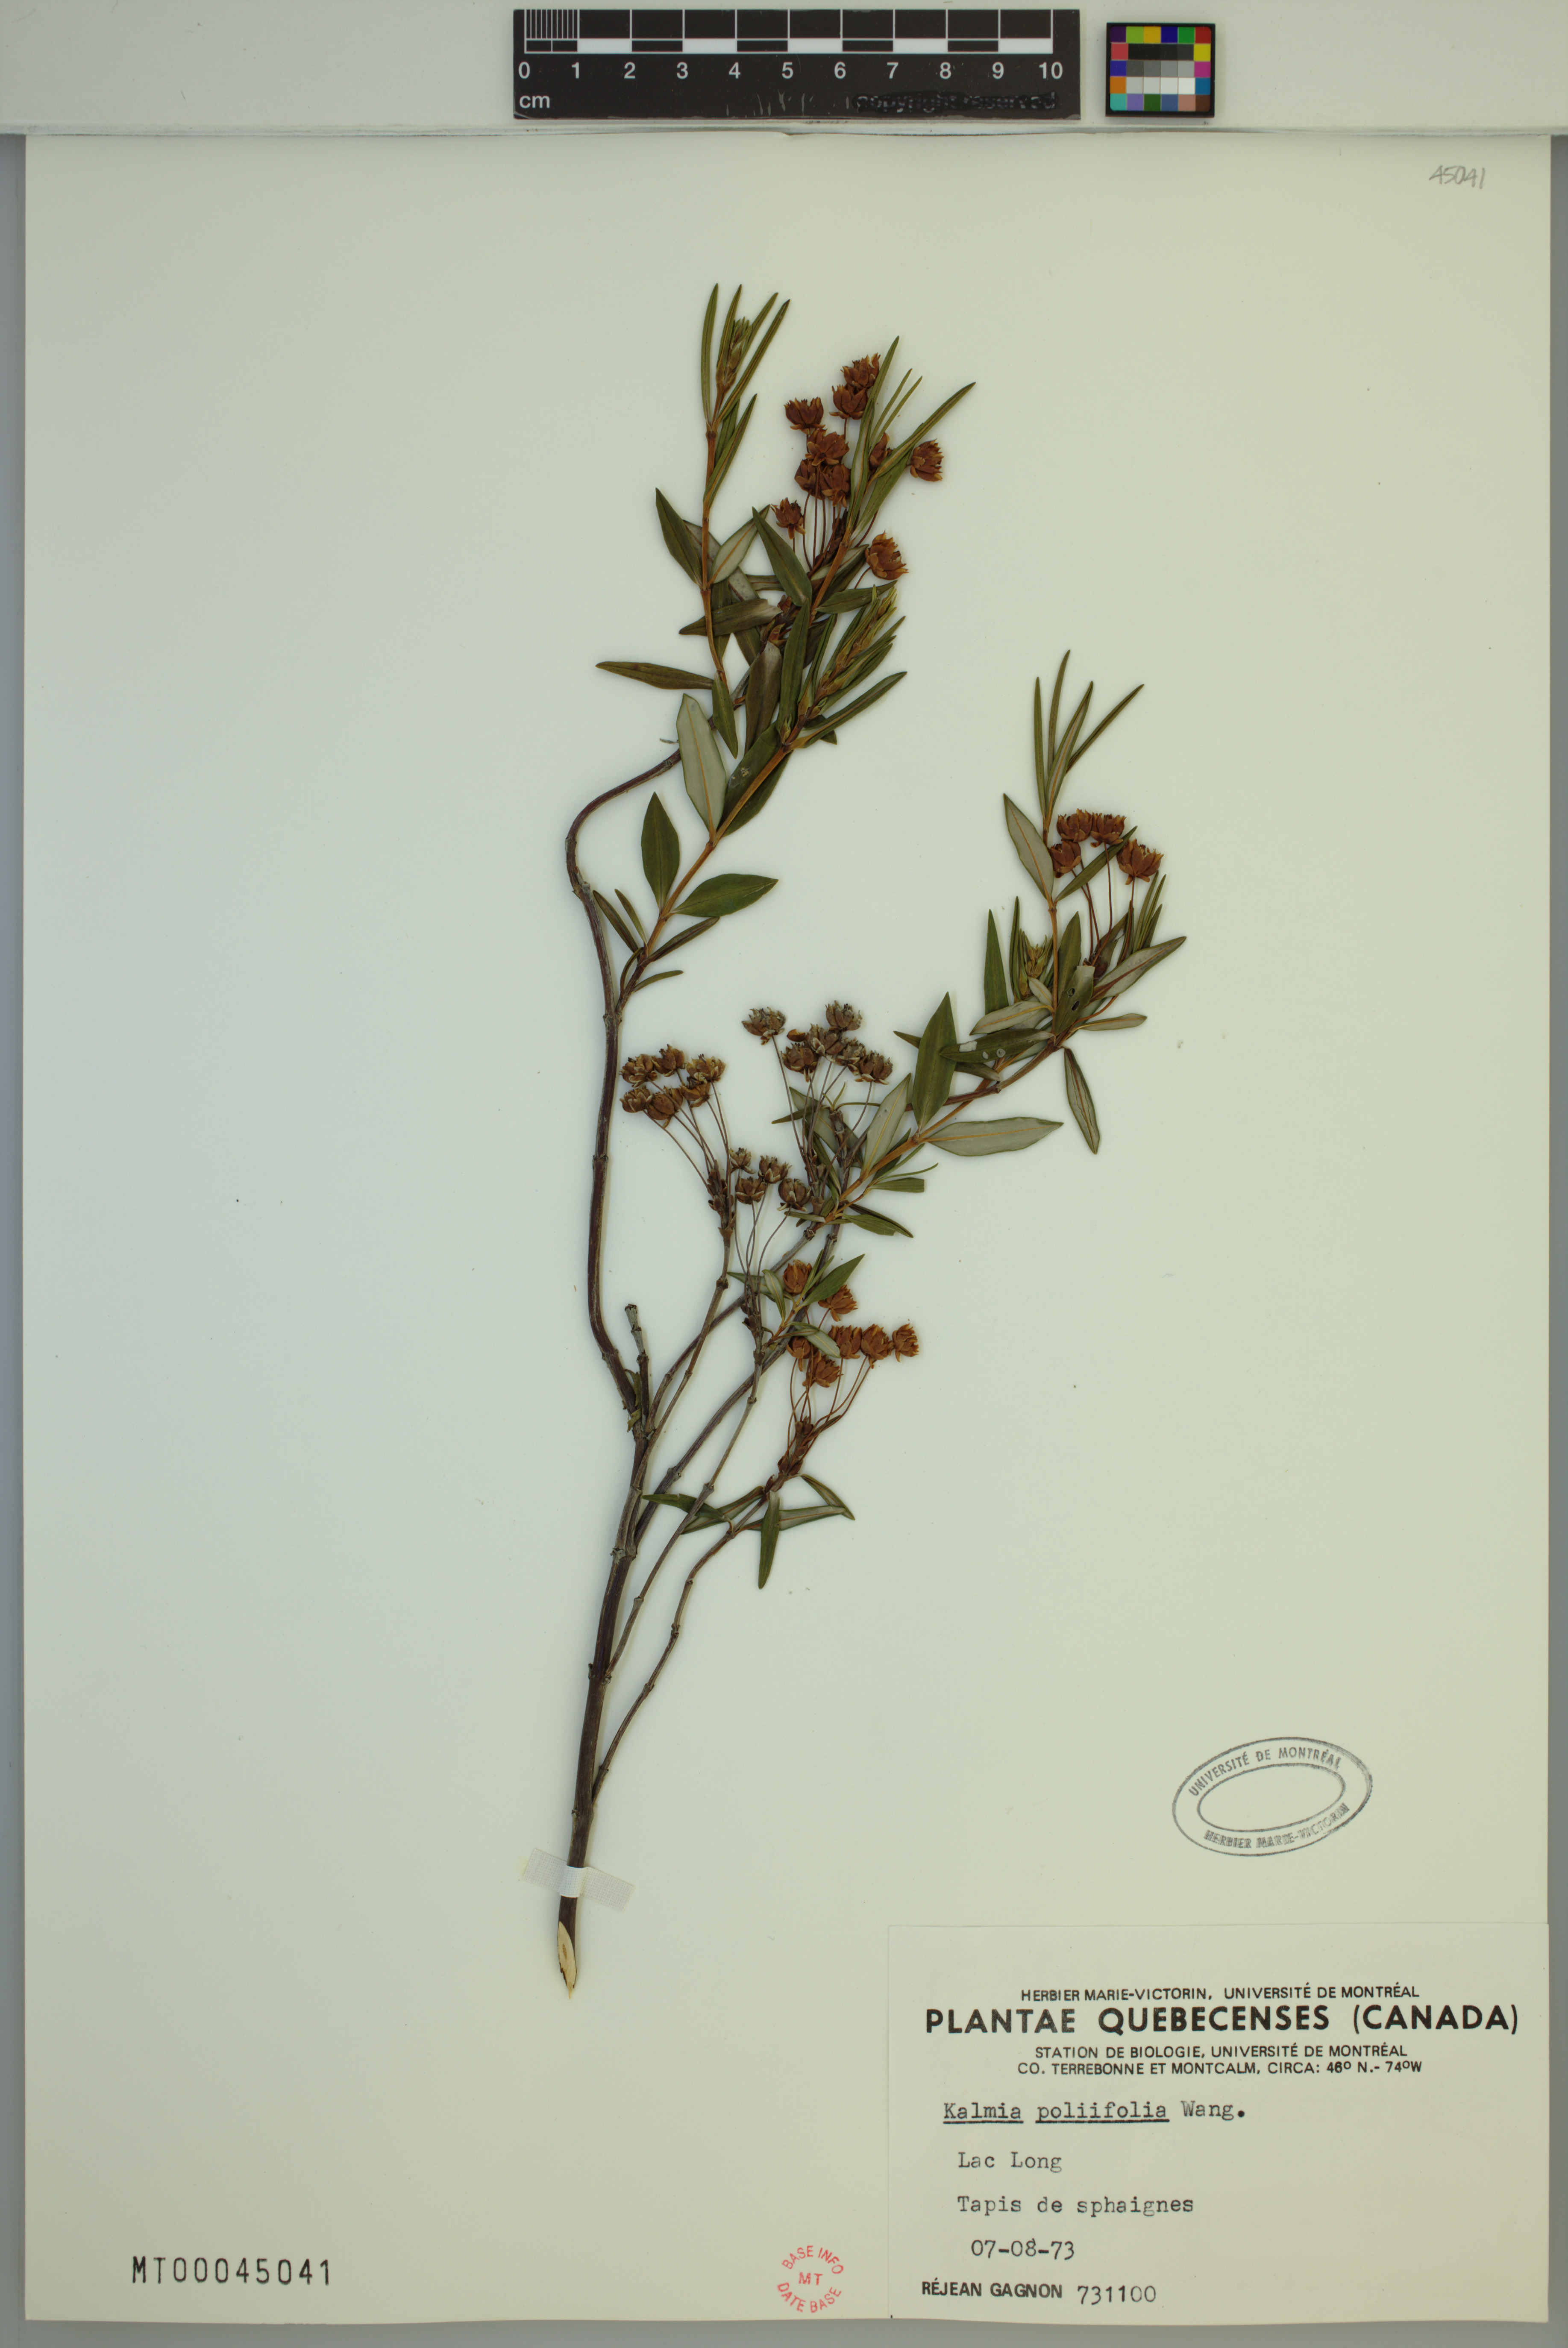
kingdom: Plantae
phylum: Tracheophyta
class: Magnoliopsida
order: Ericales
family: Ericaceae
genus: Kalmia
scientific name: Kalmia polifolia
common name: Bog-laurel
